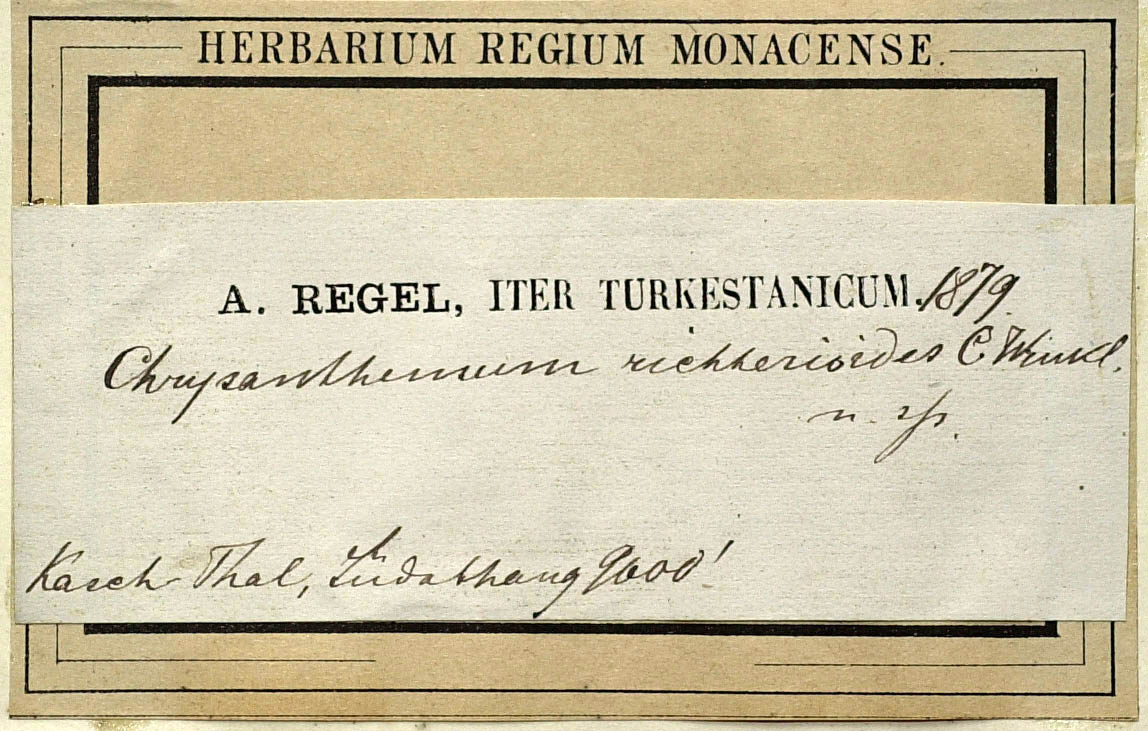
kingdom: Plantae
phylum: Tracheophyta
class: Magnoliopsida
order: Asterales
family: Asteraceae
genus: Tanacetum
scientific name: Tanacetum richterioides
